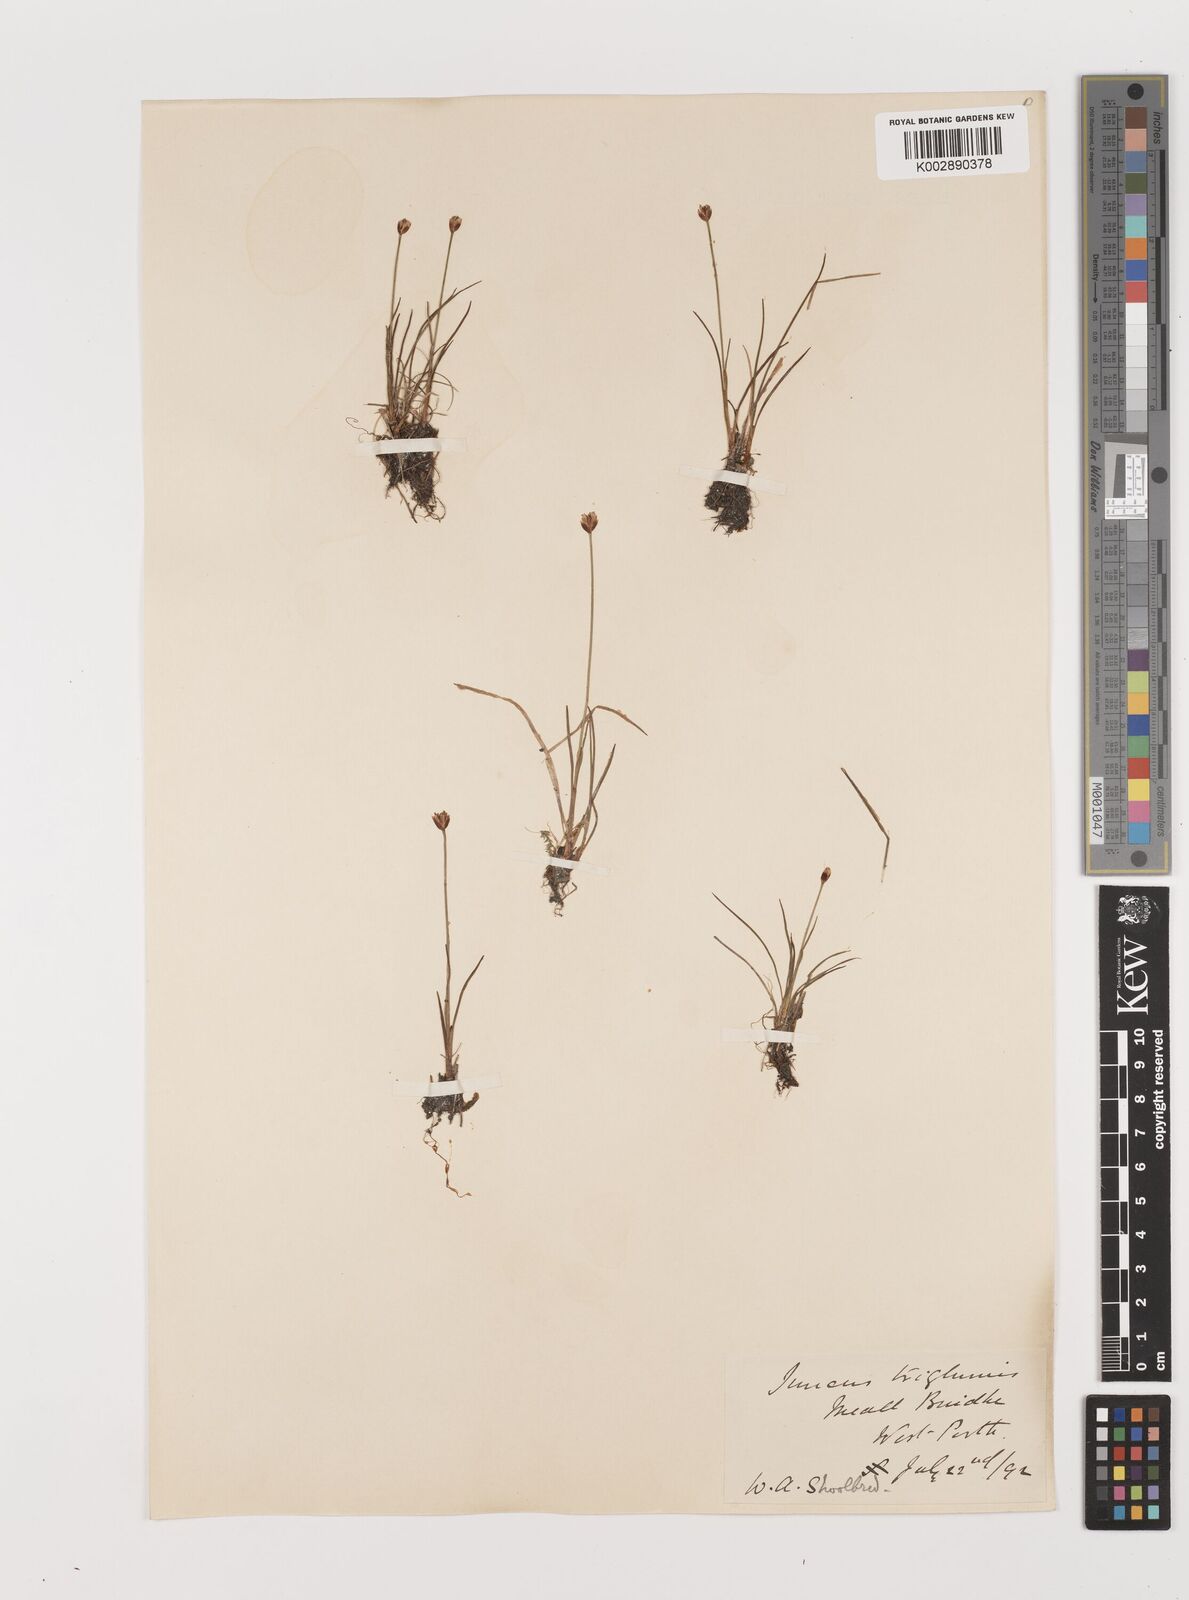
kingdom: Plantae
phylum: Tracheophyta
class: Liliopsida
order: Poales
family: Juncaceae
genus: Juncus
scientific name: Juncus triglumis
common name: Three-flowered rush
